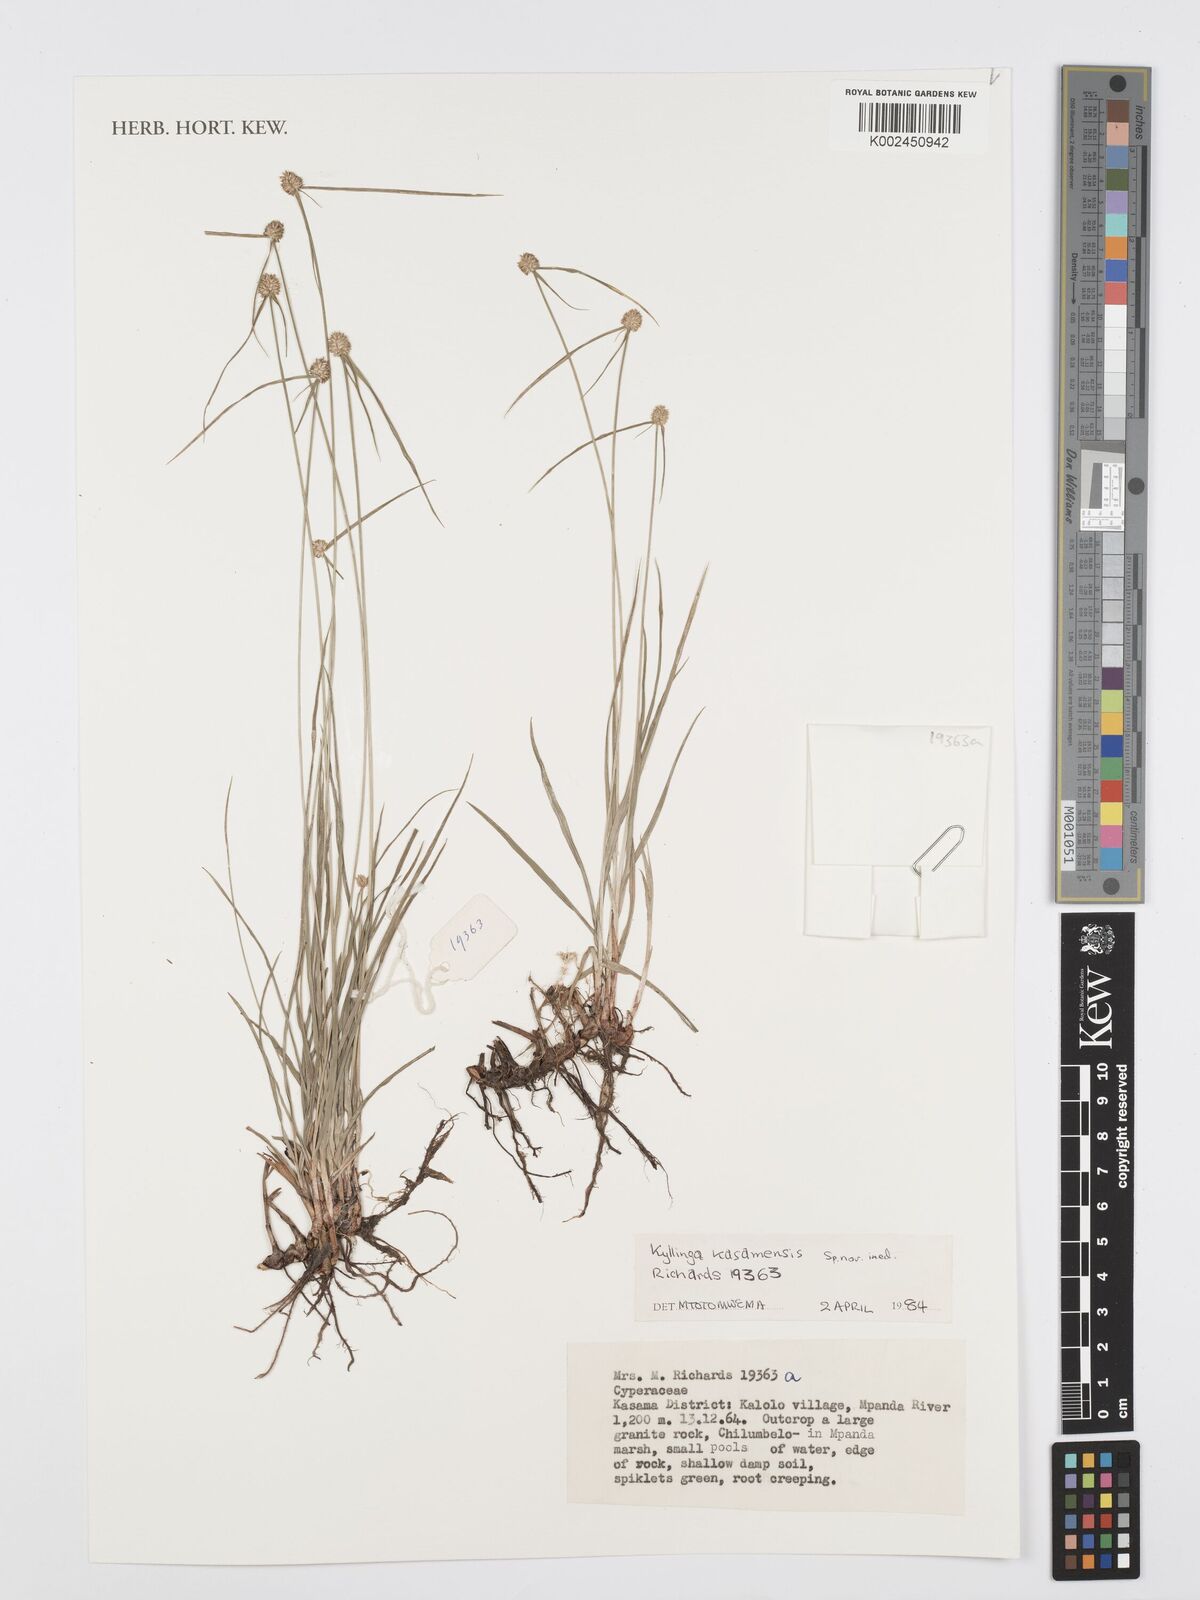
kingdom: Plantae
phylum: Tracheophyta
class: Liliopsida
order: Poales
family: Cyperaceae
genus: Cyperus
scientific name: Cyperus denudatus
